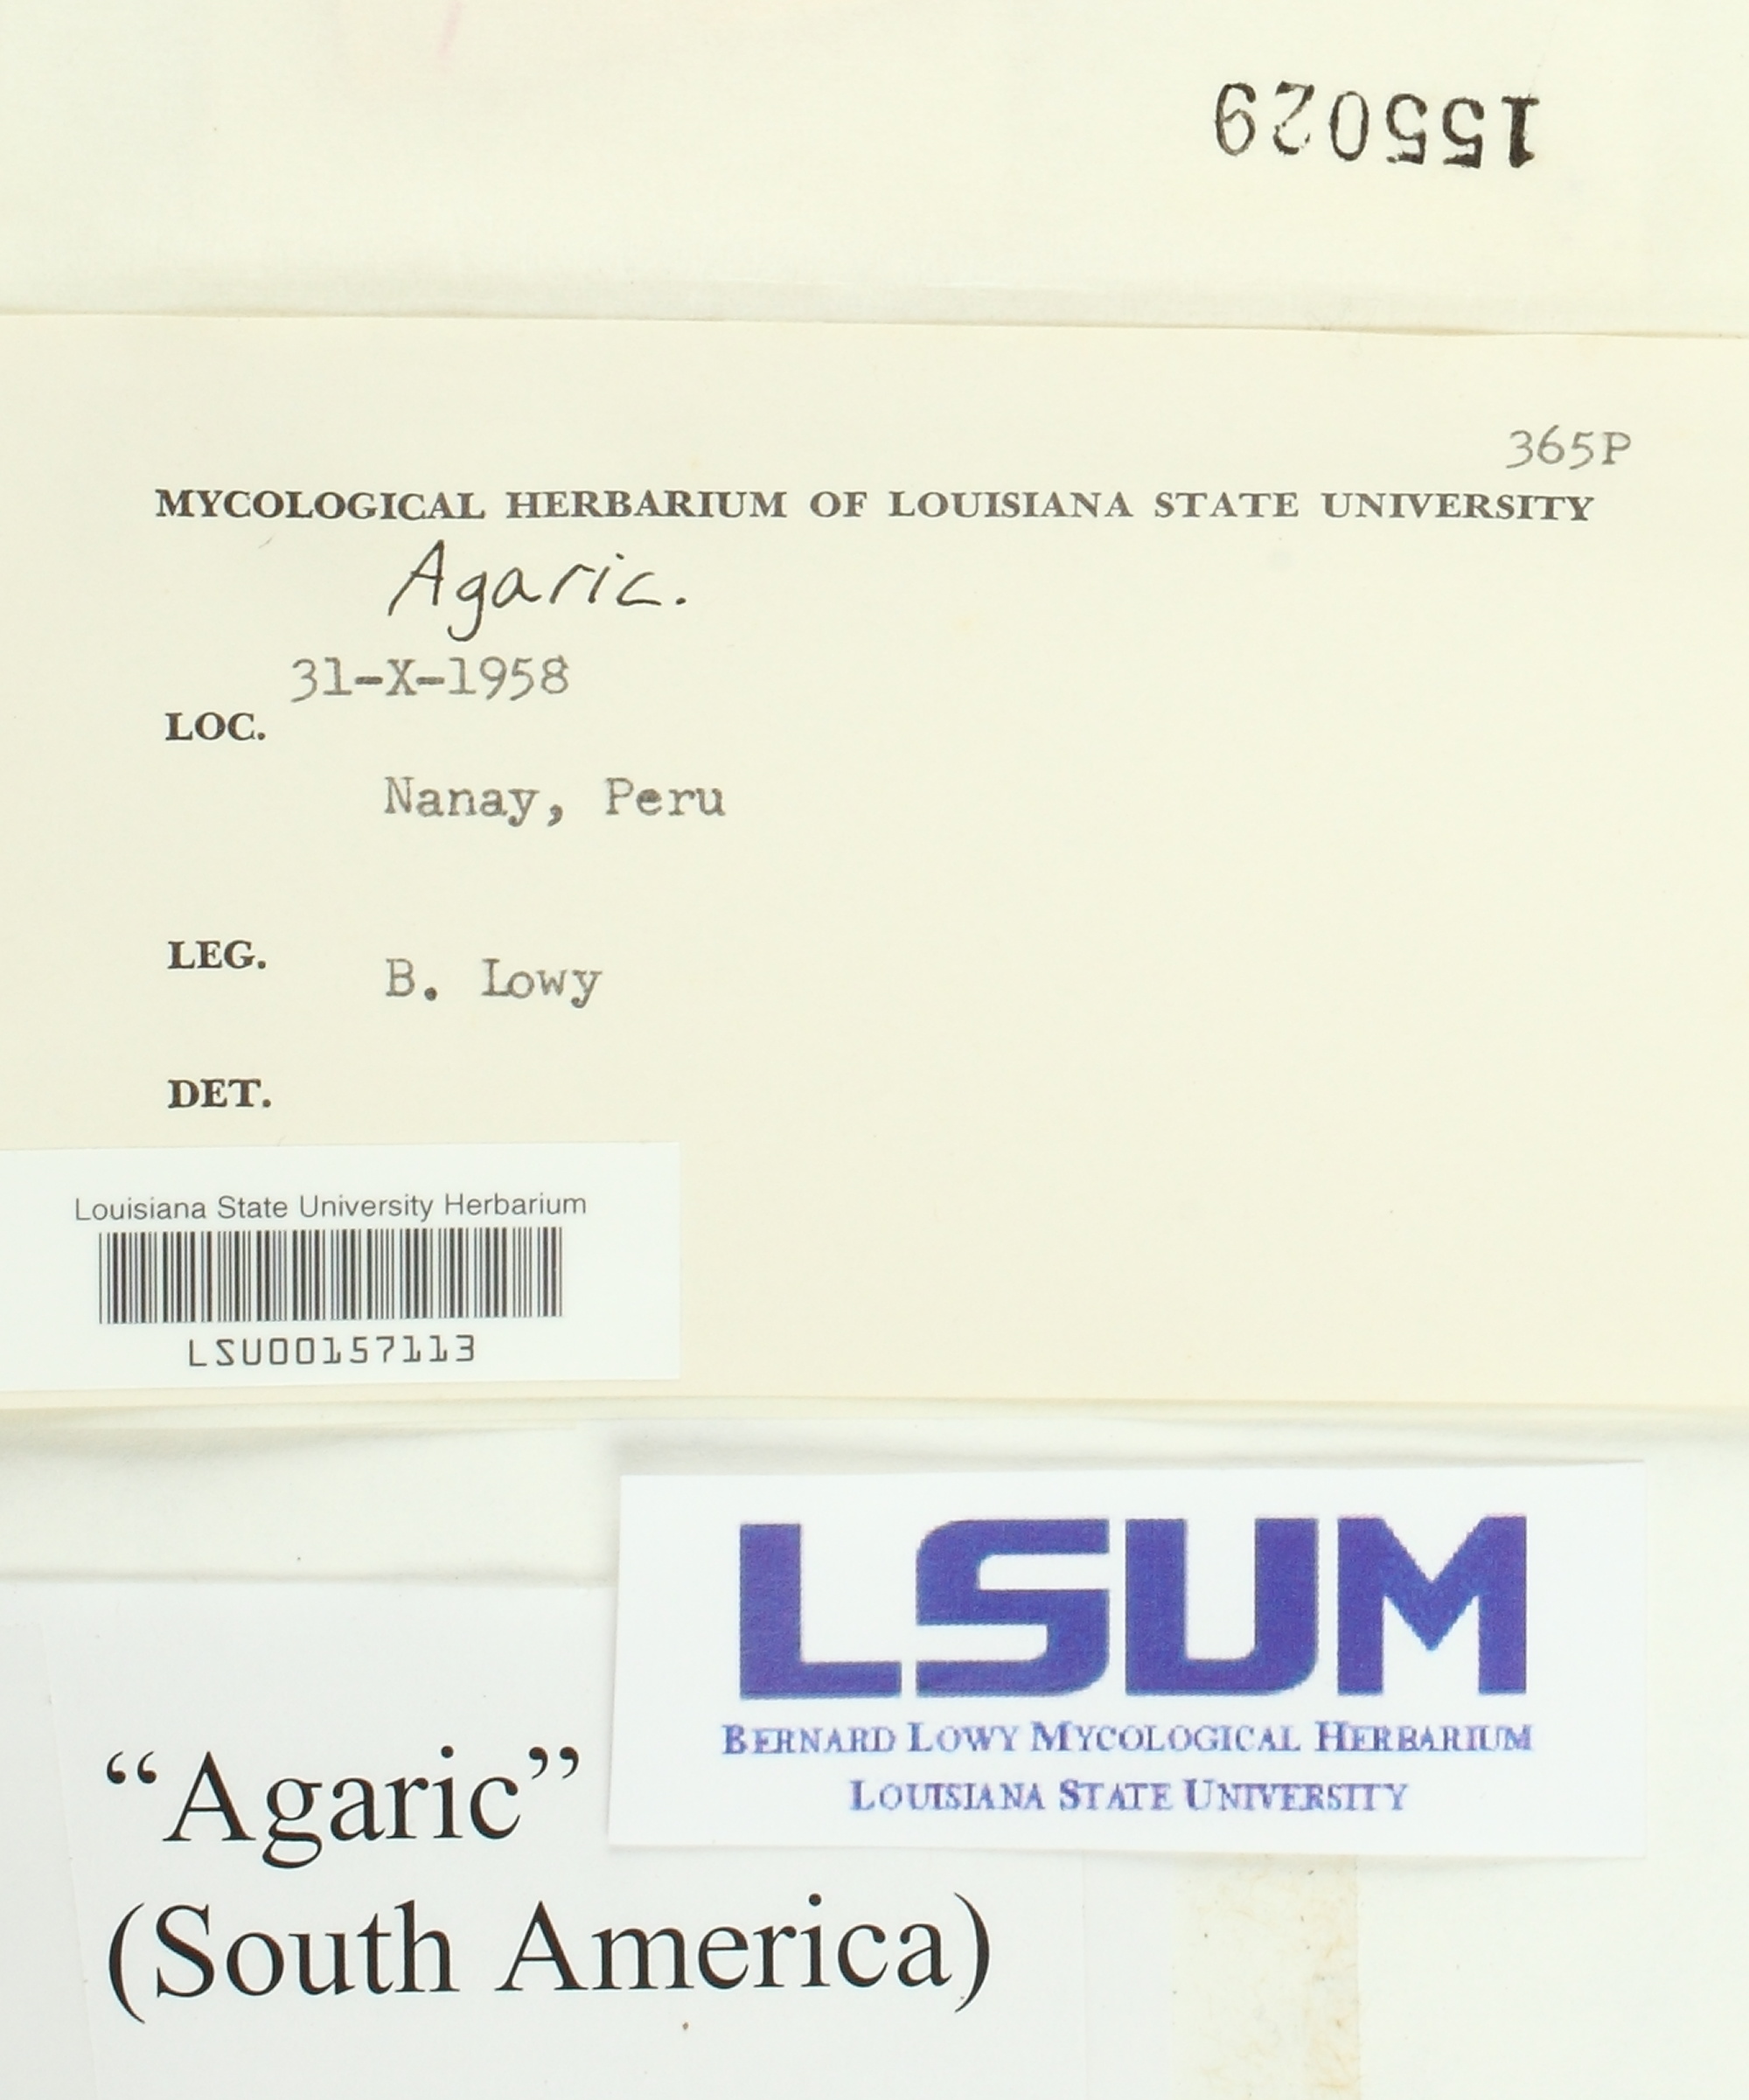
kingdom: Fungi
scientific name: Fungi
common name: Fungi
